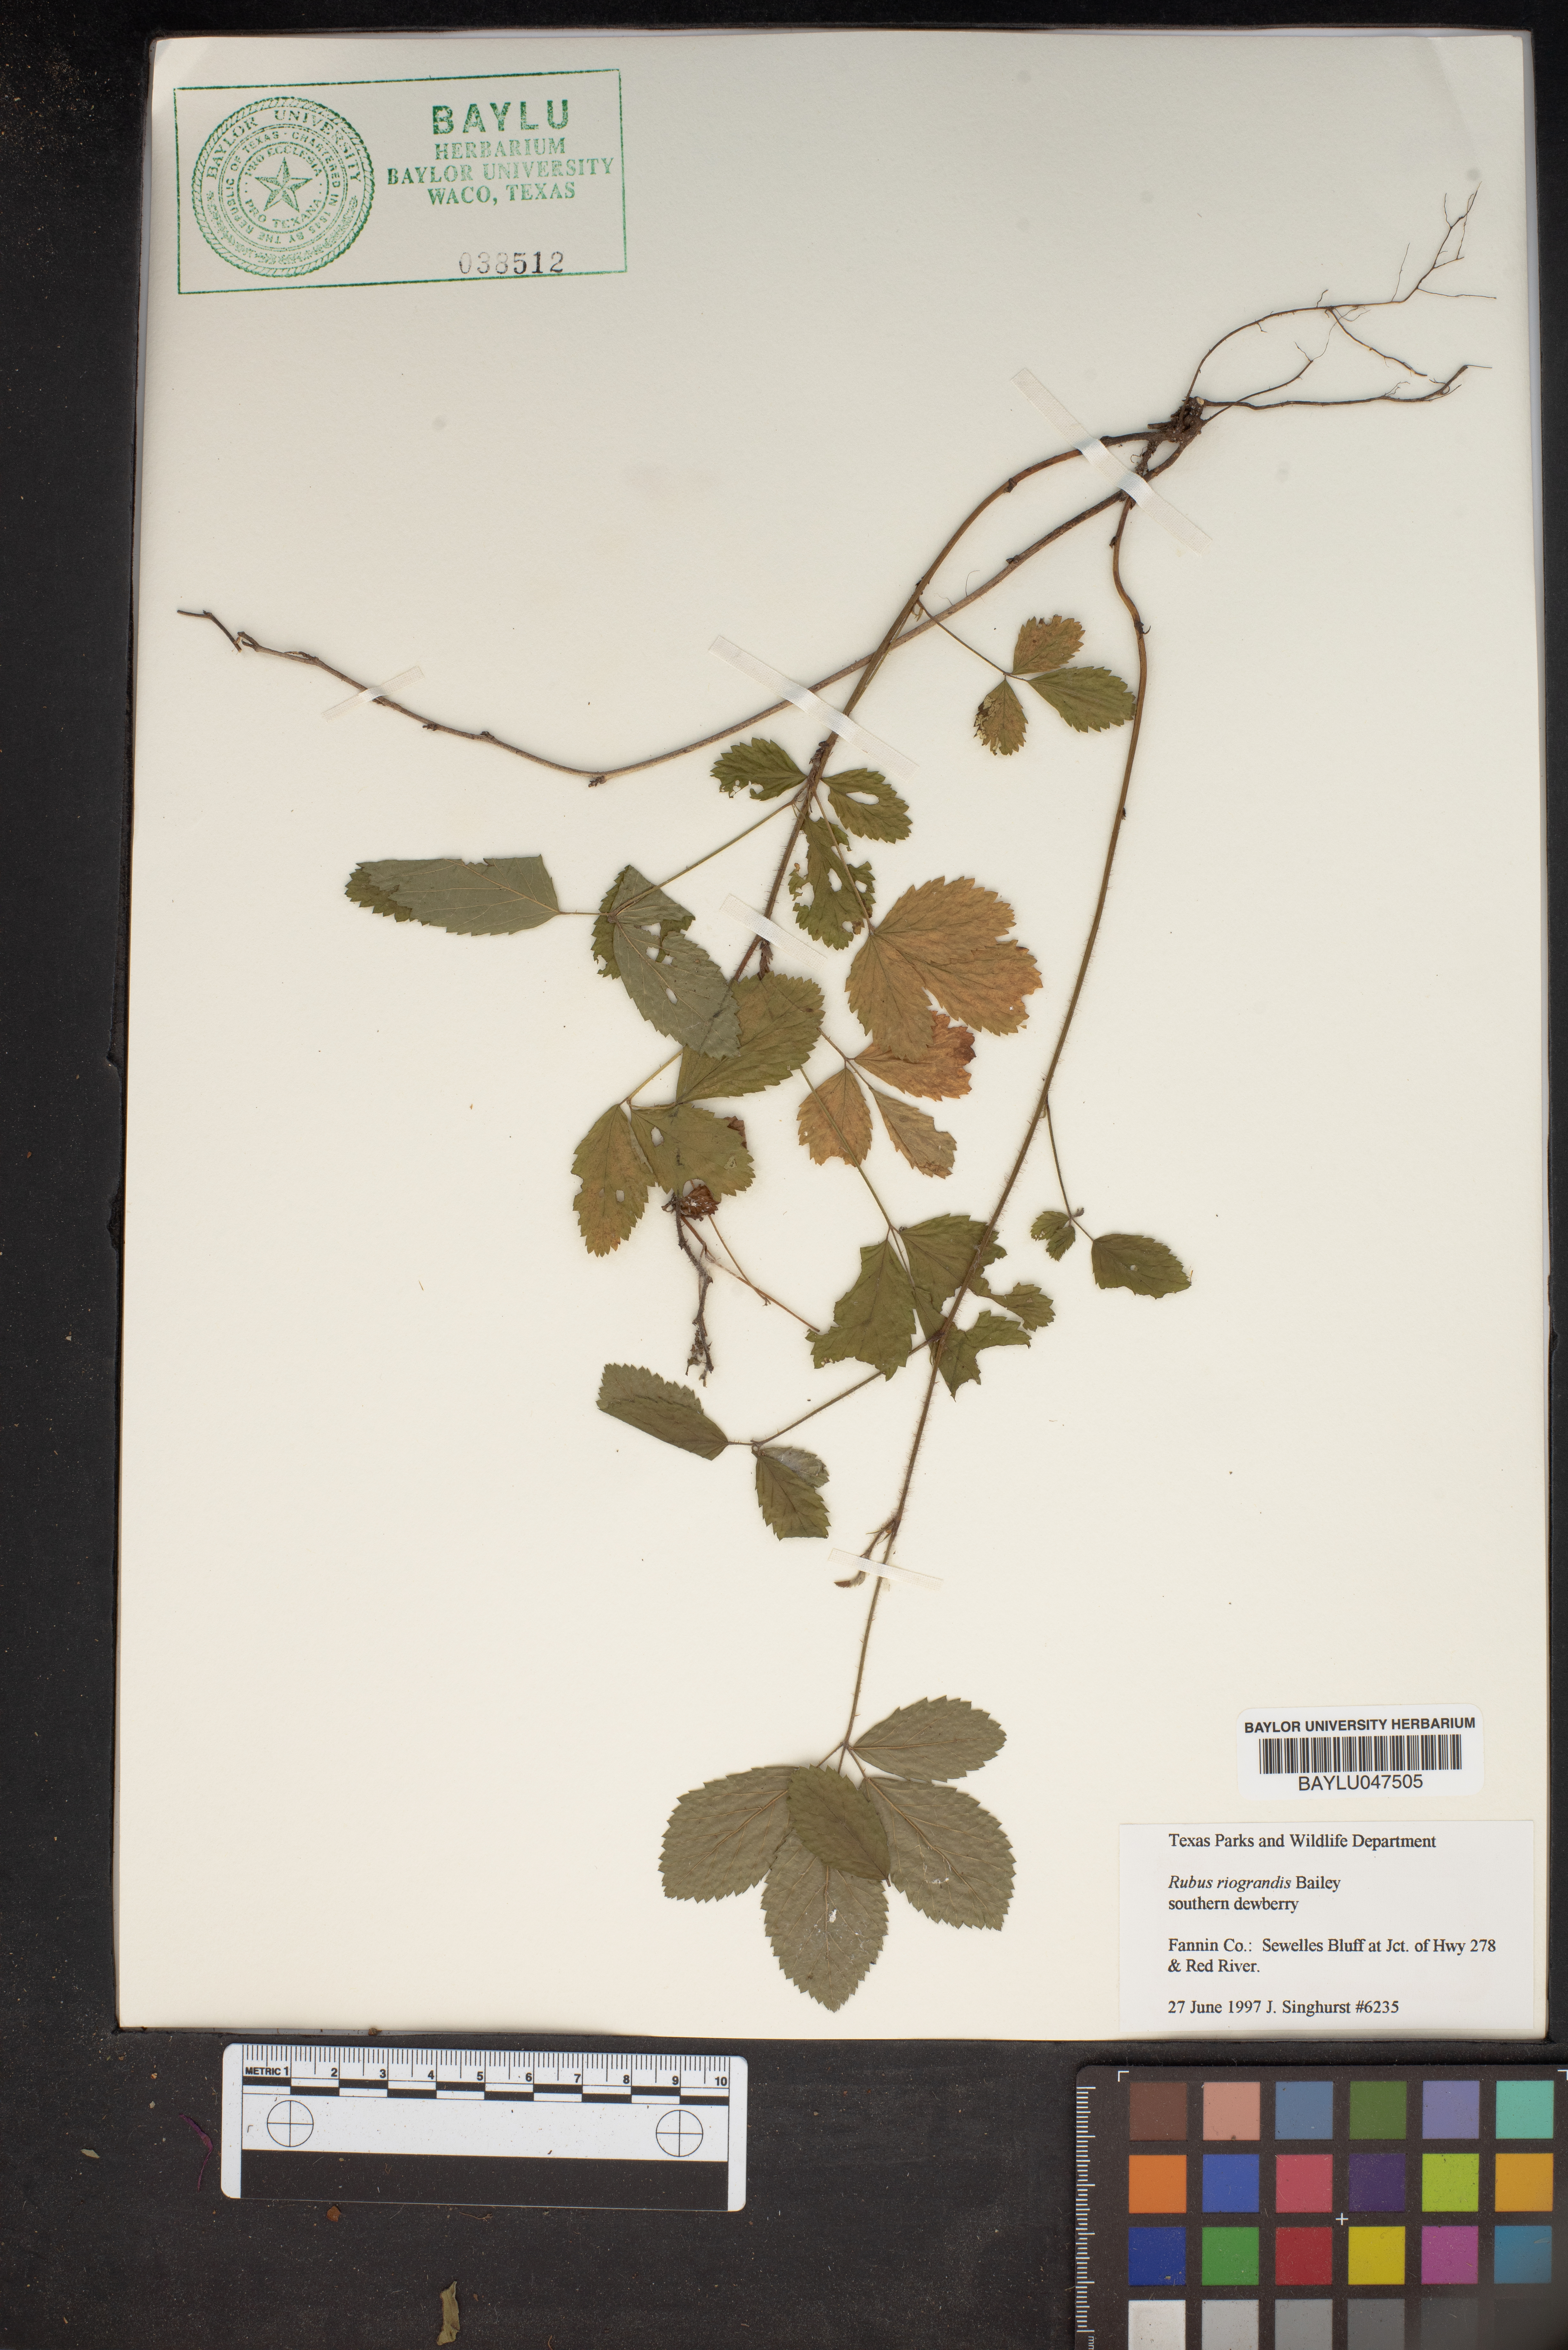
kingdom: Plantae
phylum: Tracheophyta
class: Magnoliopsida
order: Rosales
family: Rosaceae
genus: Rubus
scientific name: Rubus riograndis
